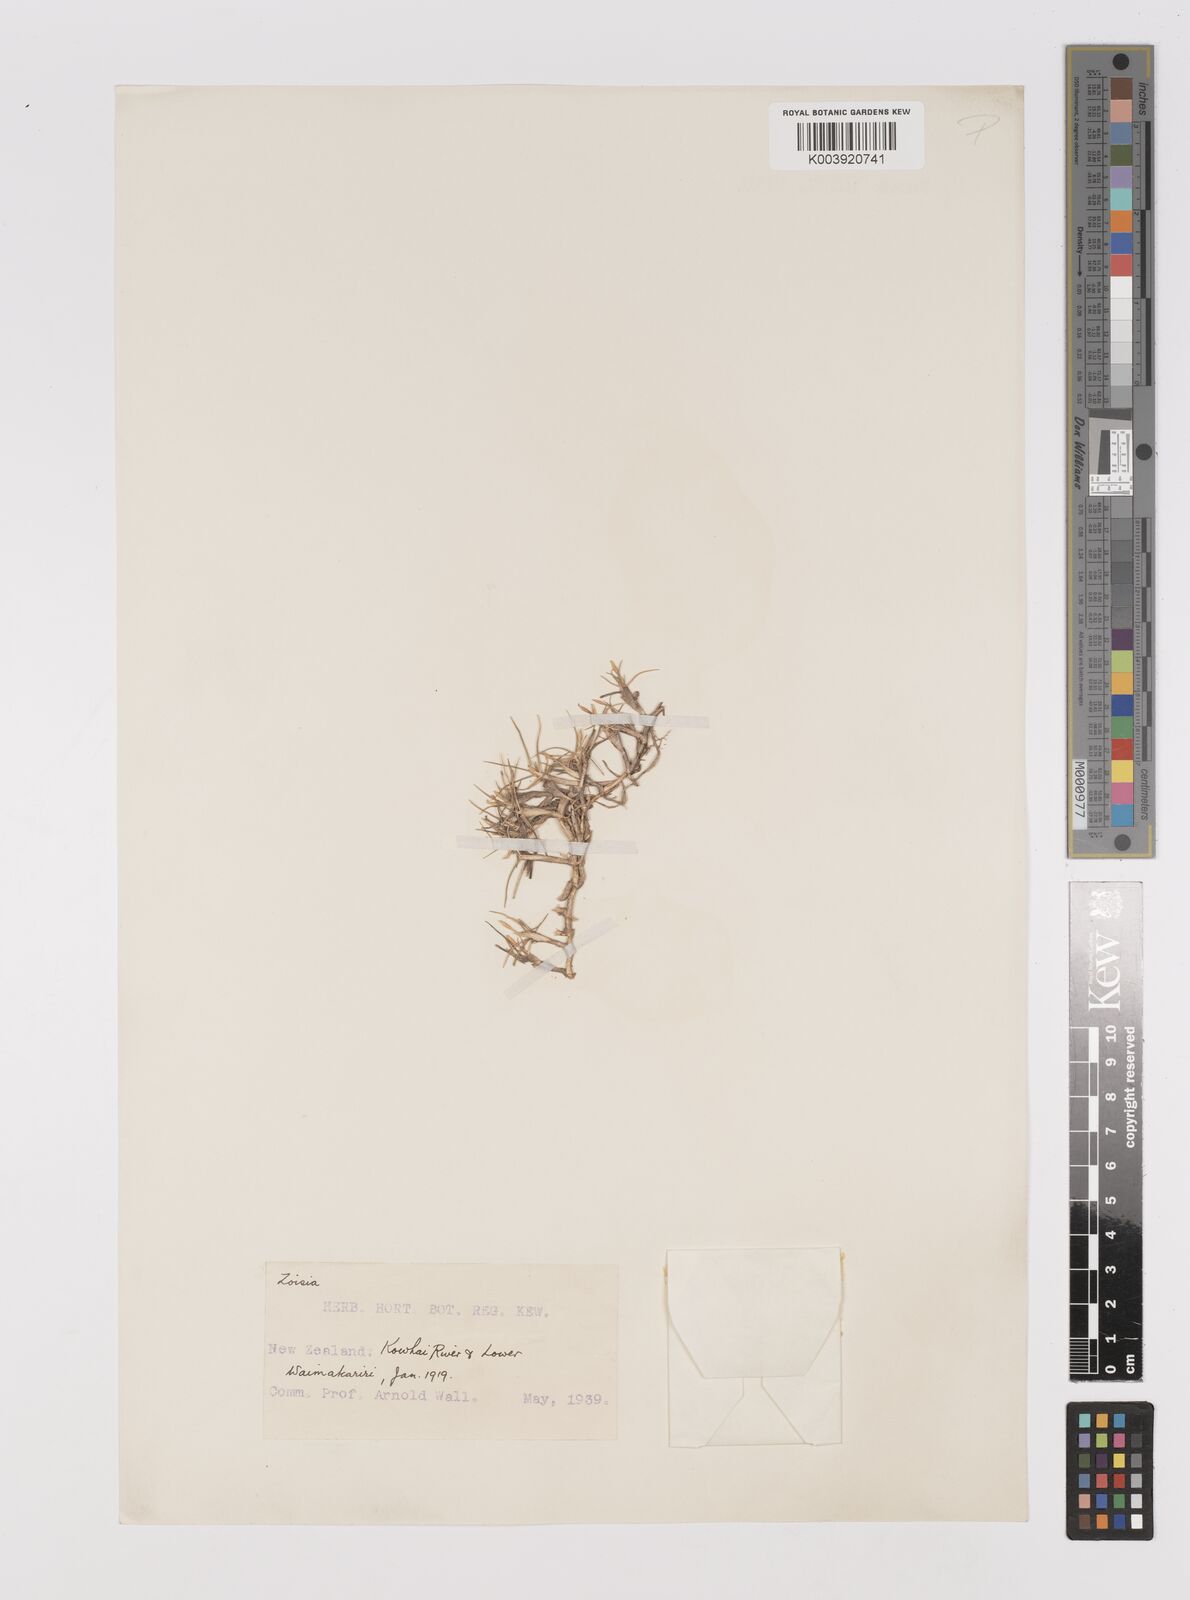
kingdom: Plantae
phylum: Tracheophyta
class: Liliopsida
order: Poales
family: Poaceae
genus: Zoysia
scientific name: Zoysia minima
